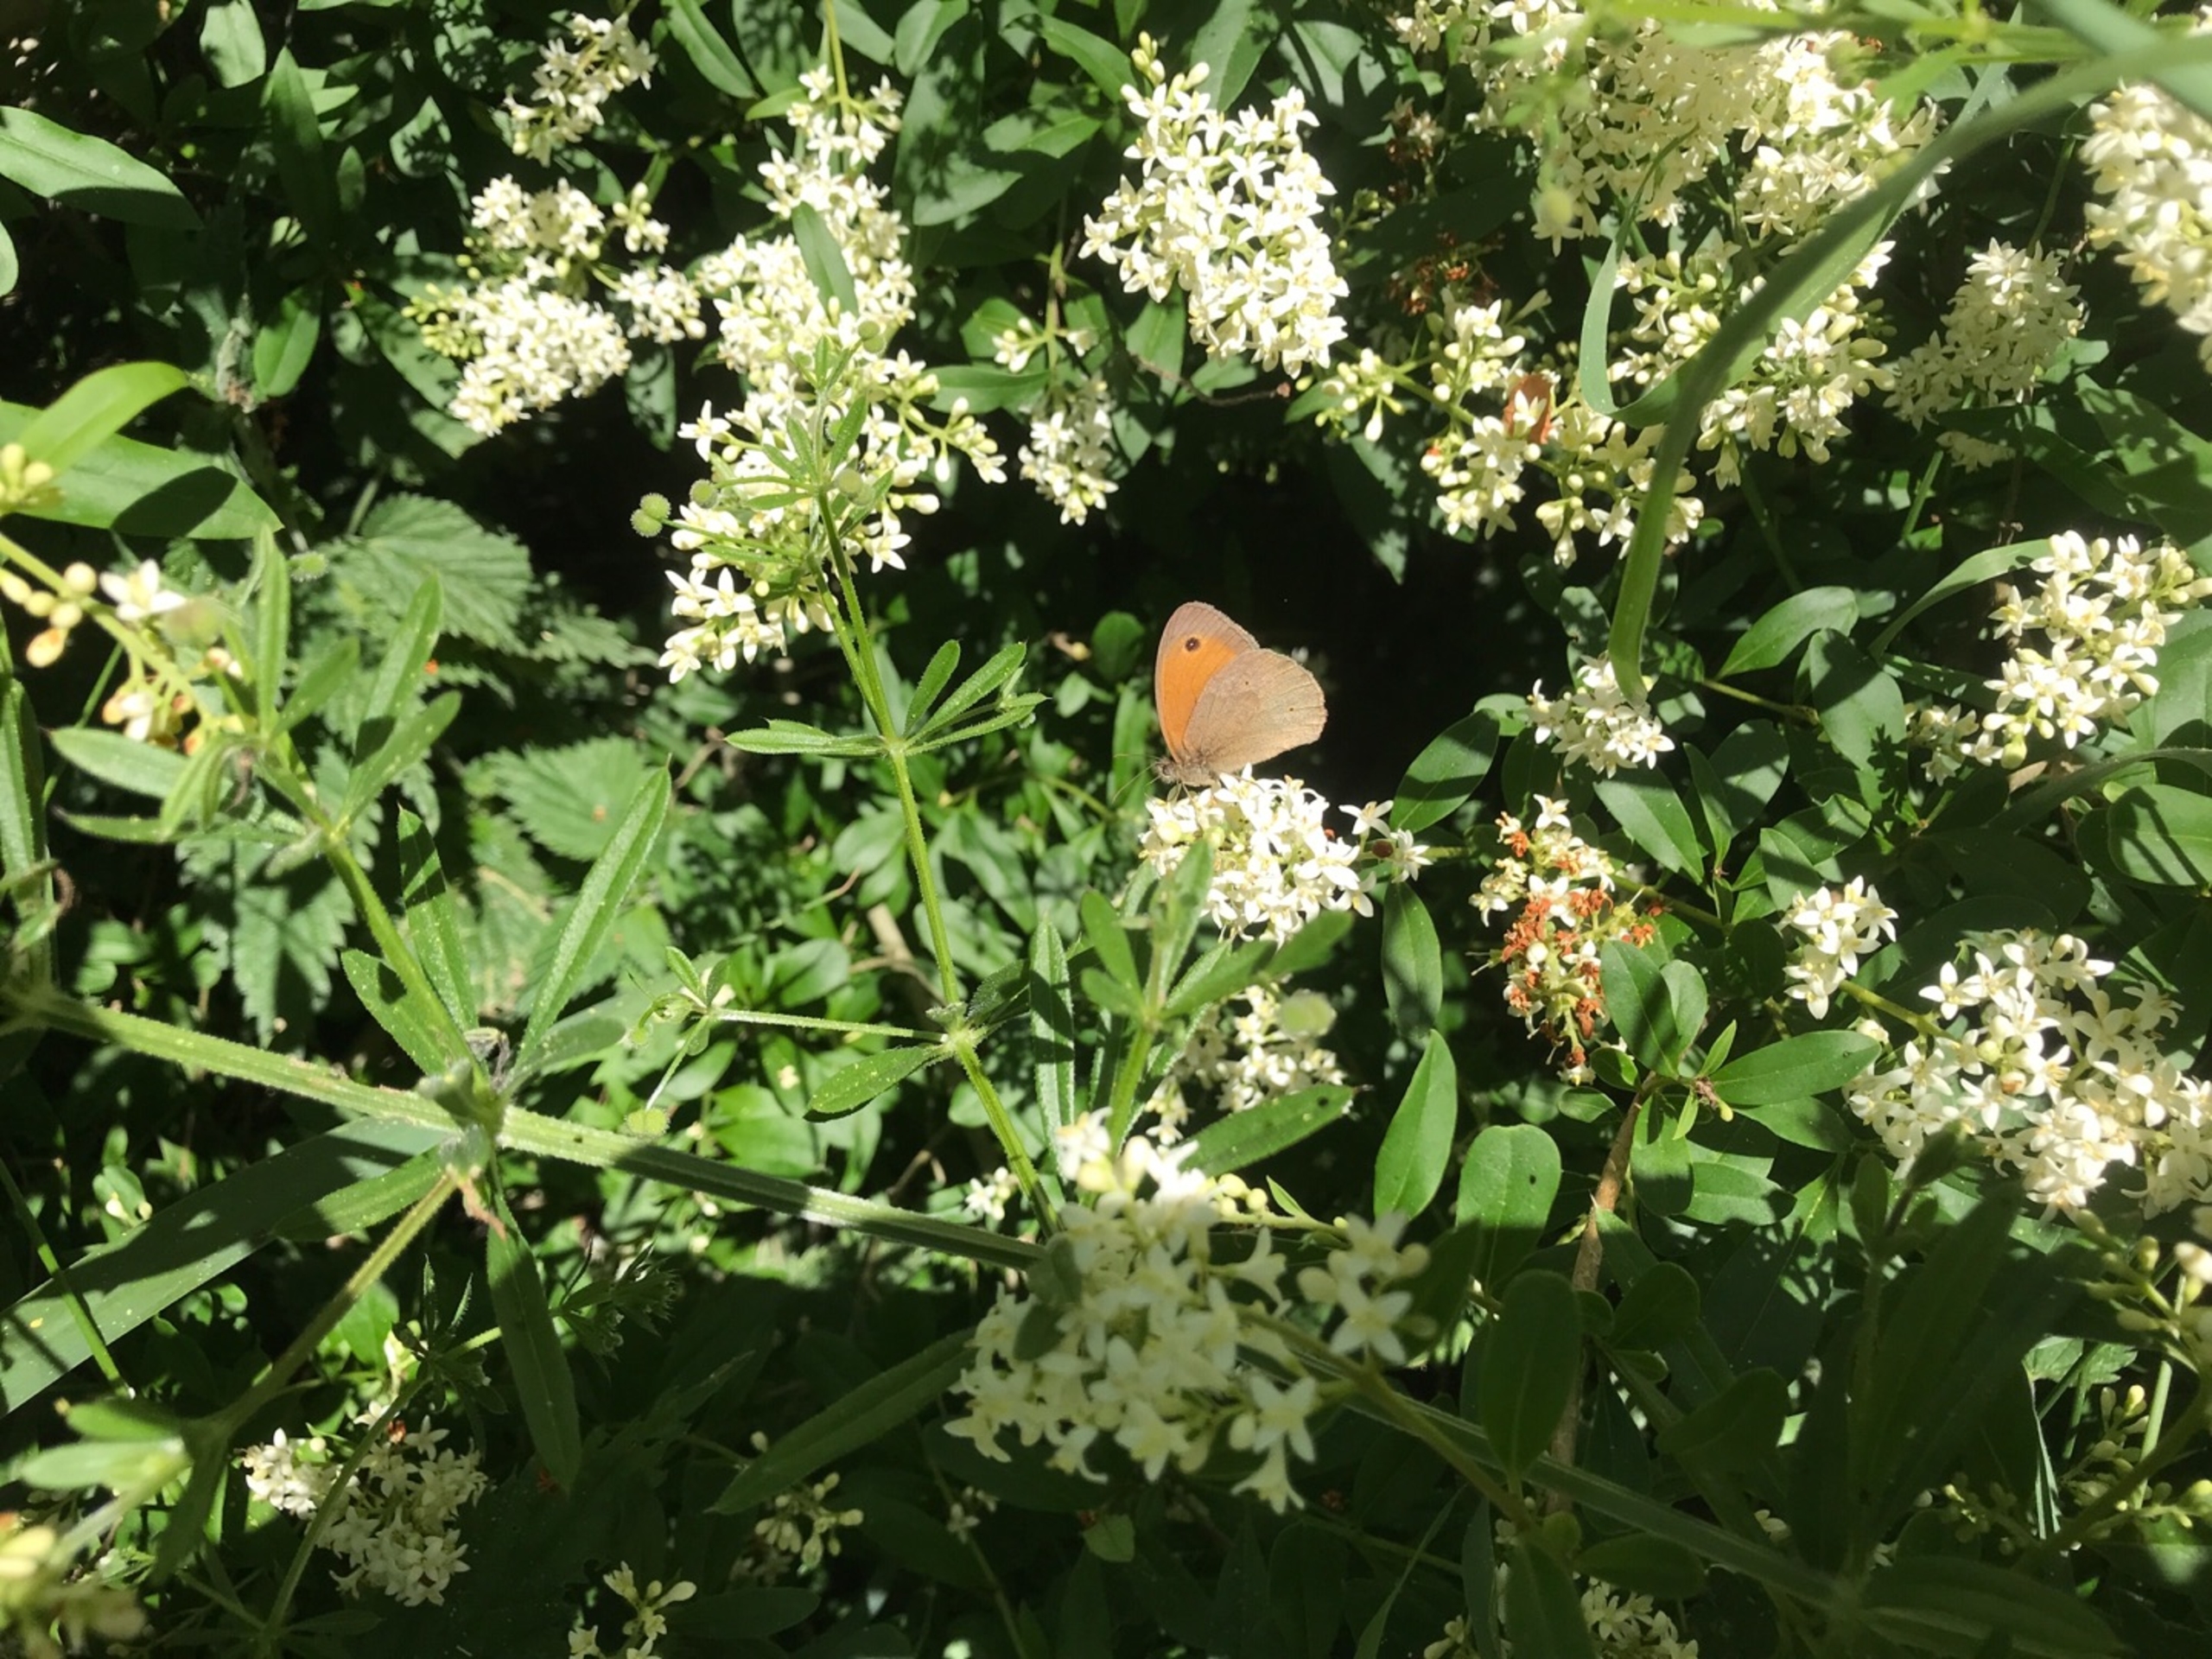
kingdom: Animalia
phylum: Arthropoda
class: Insecta
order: Lepidoptera
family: Nymphalidae
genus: Maniola
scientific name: Maniola jurtina
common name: Græsrandøje
